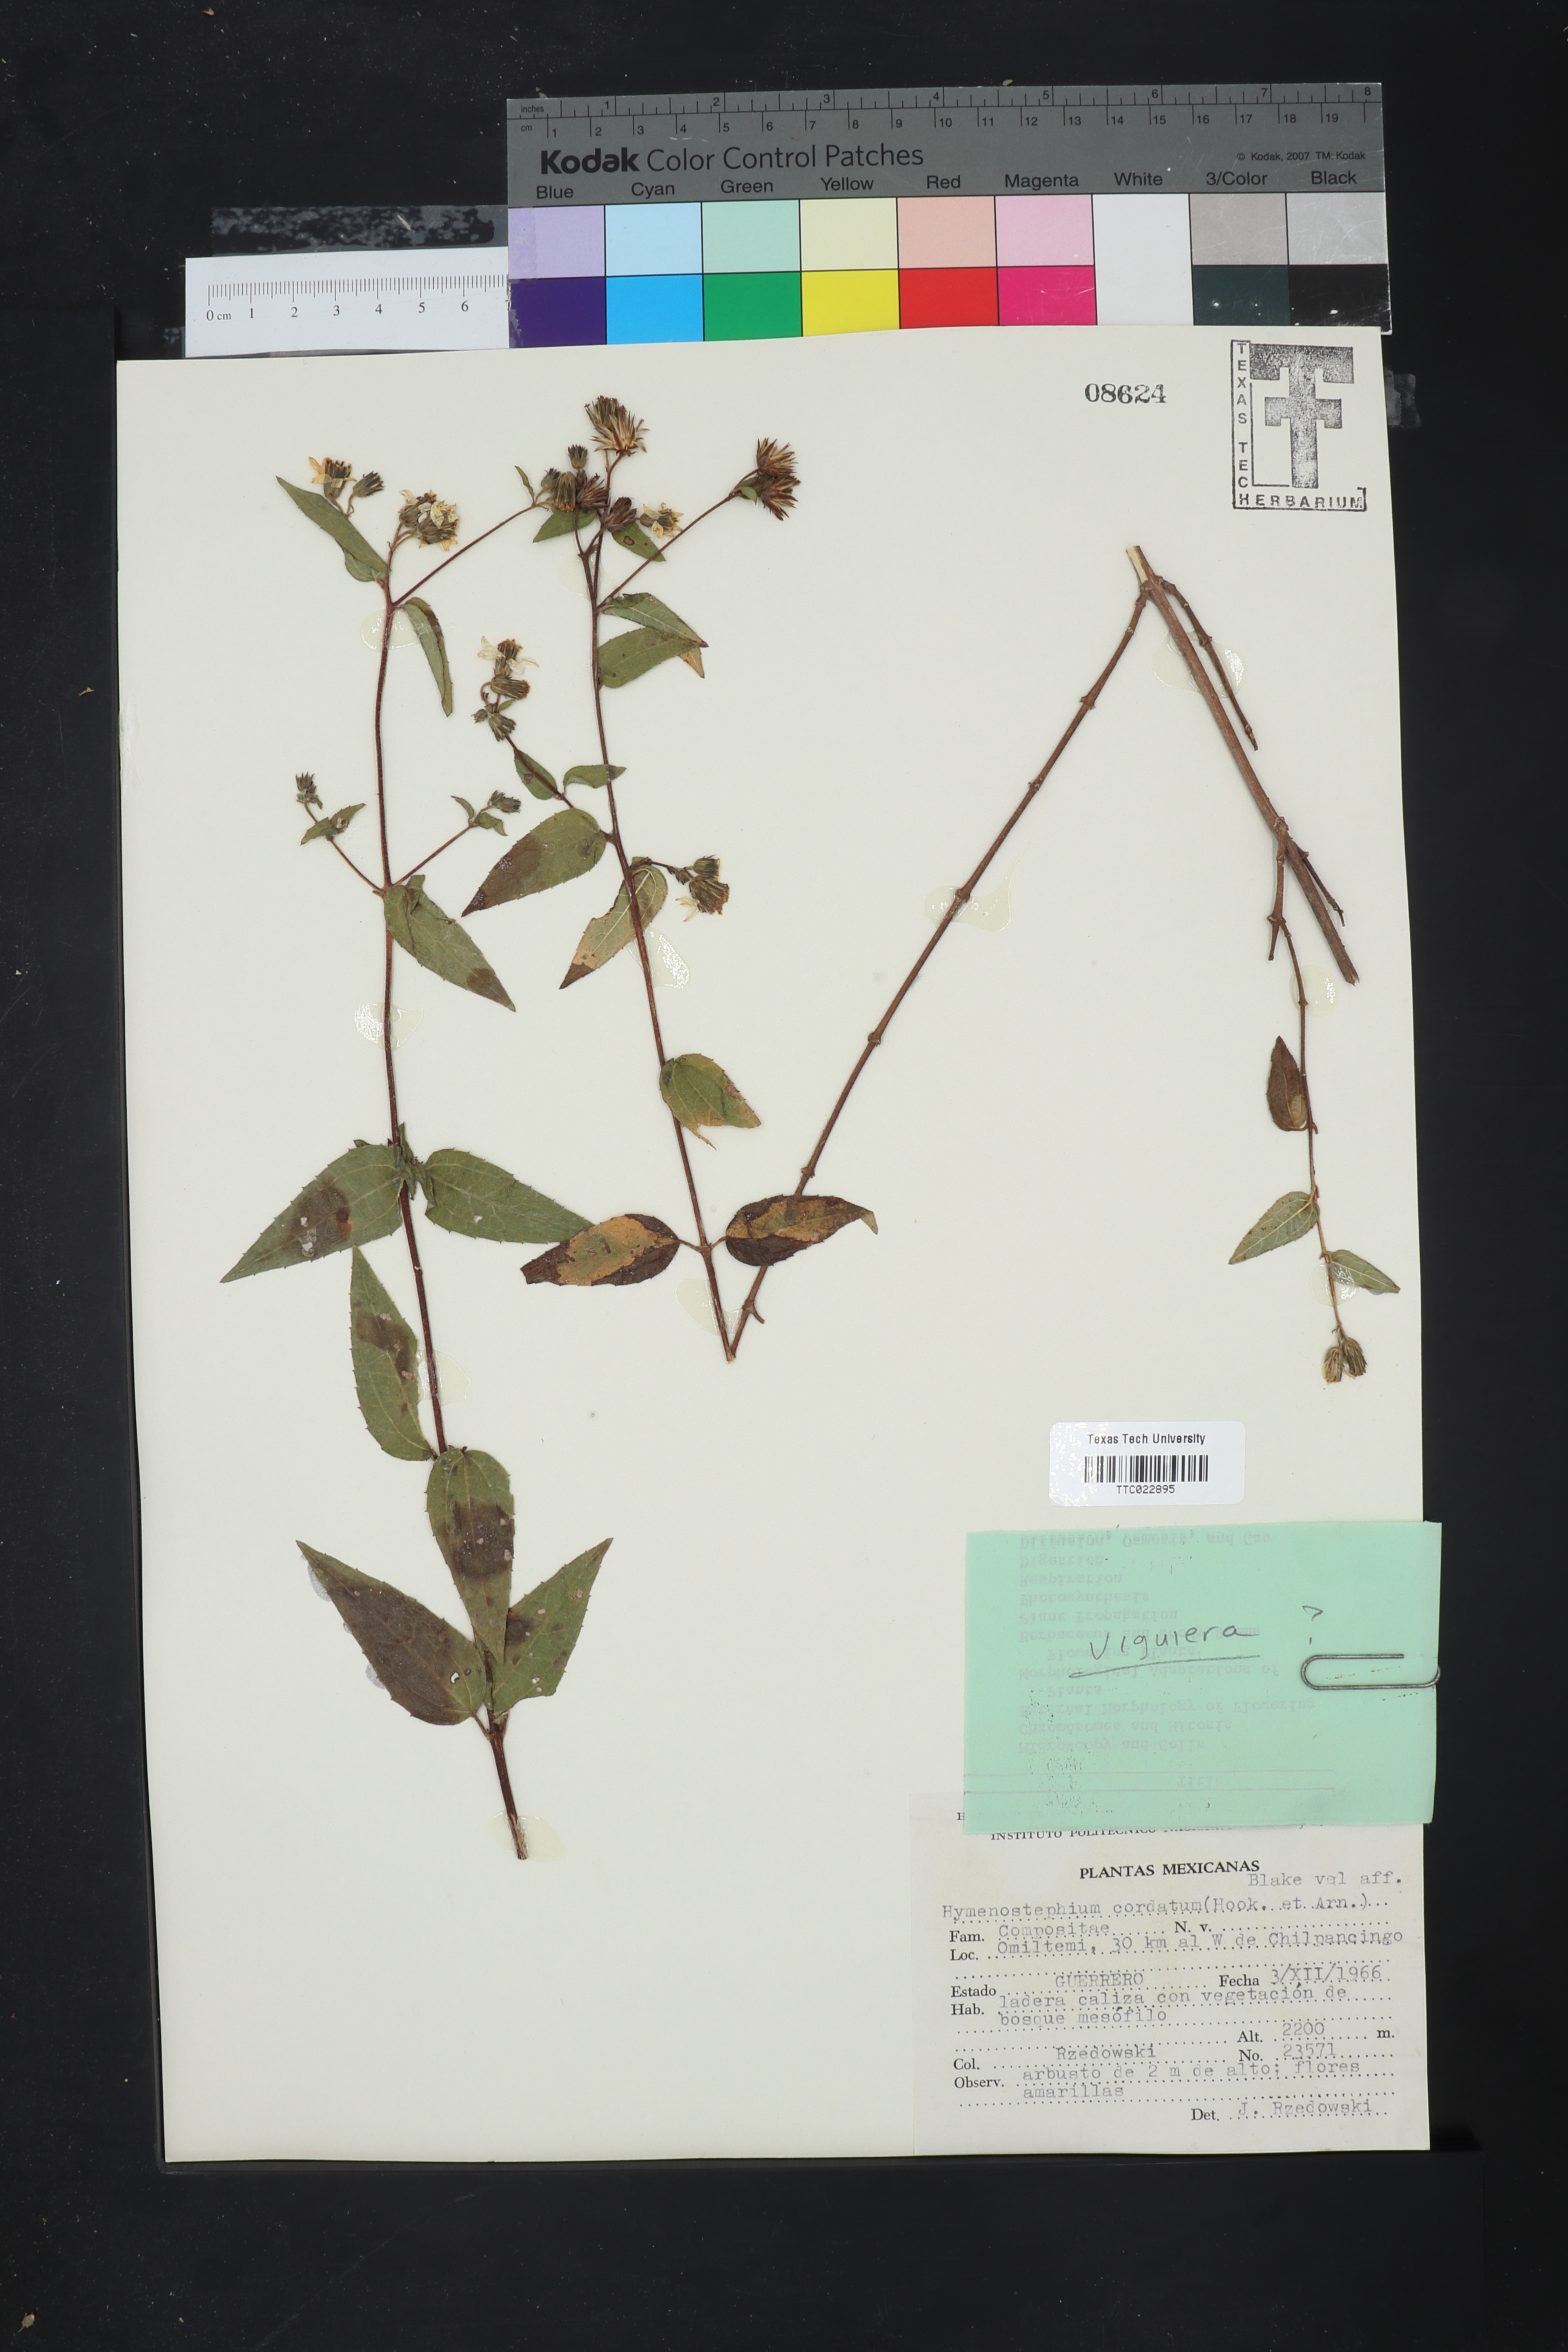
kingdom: Plantae
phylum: Tracheophyta
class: Magnoliopsida
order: Asterales
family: Asteraceae
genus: Hymenostephium
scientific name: Hymenostephium cordatum
